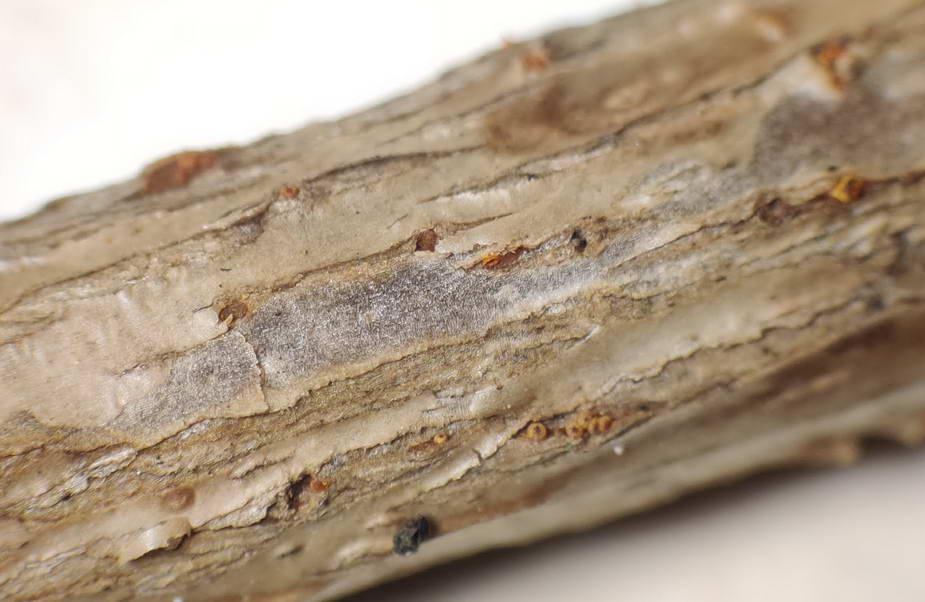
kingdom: Fungi
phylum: Ascomycota
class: Sordariomycetes
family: Thyridiaceae
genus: Thyronectria
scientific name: Thyronectria sinopica
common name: vedbend-cinnobersvamp
